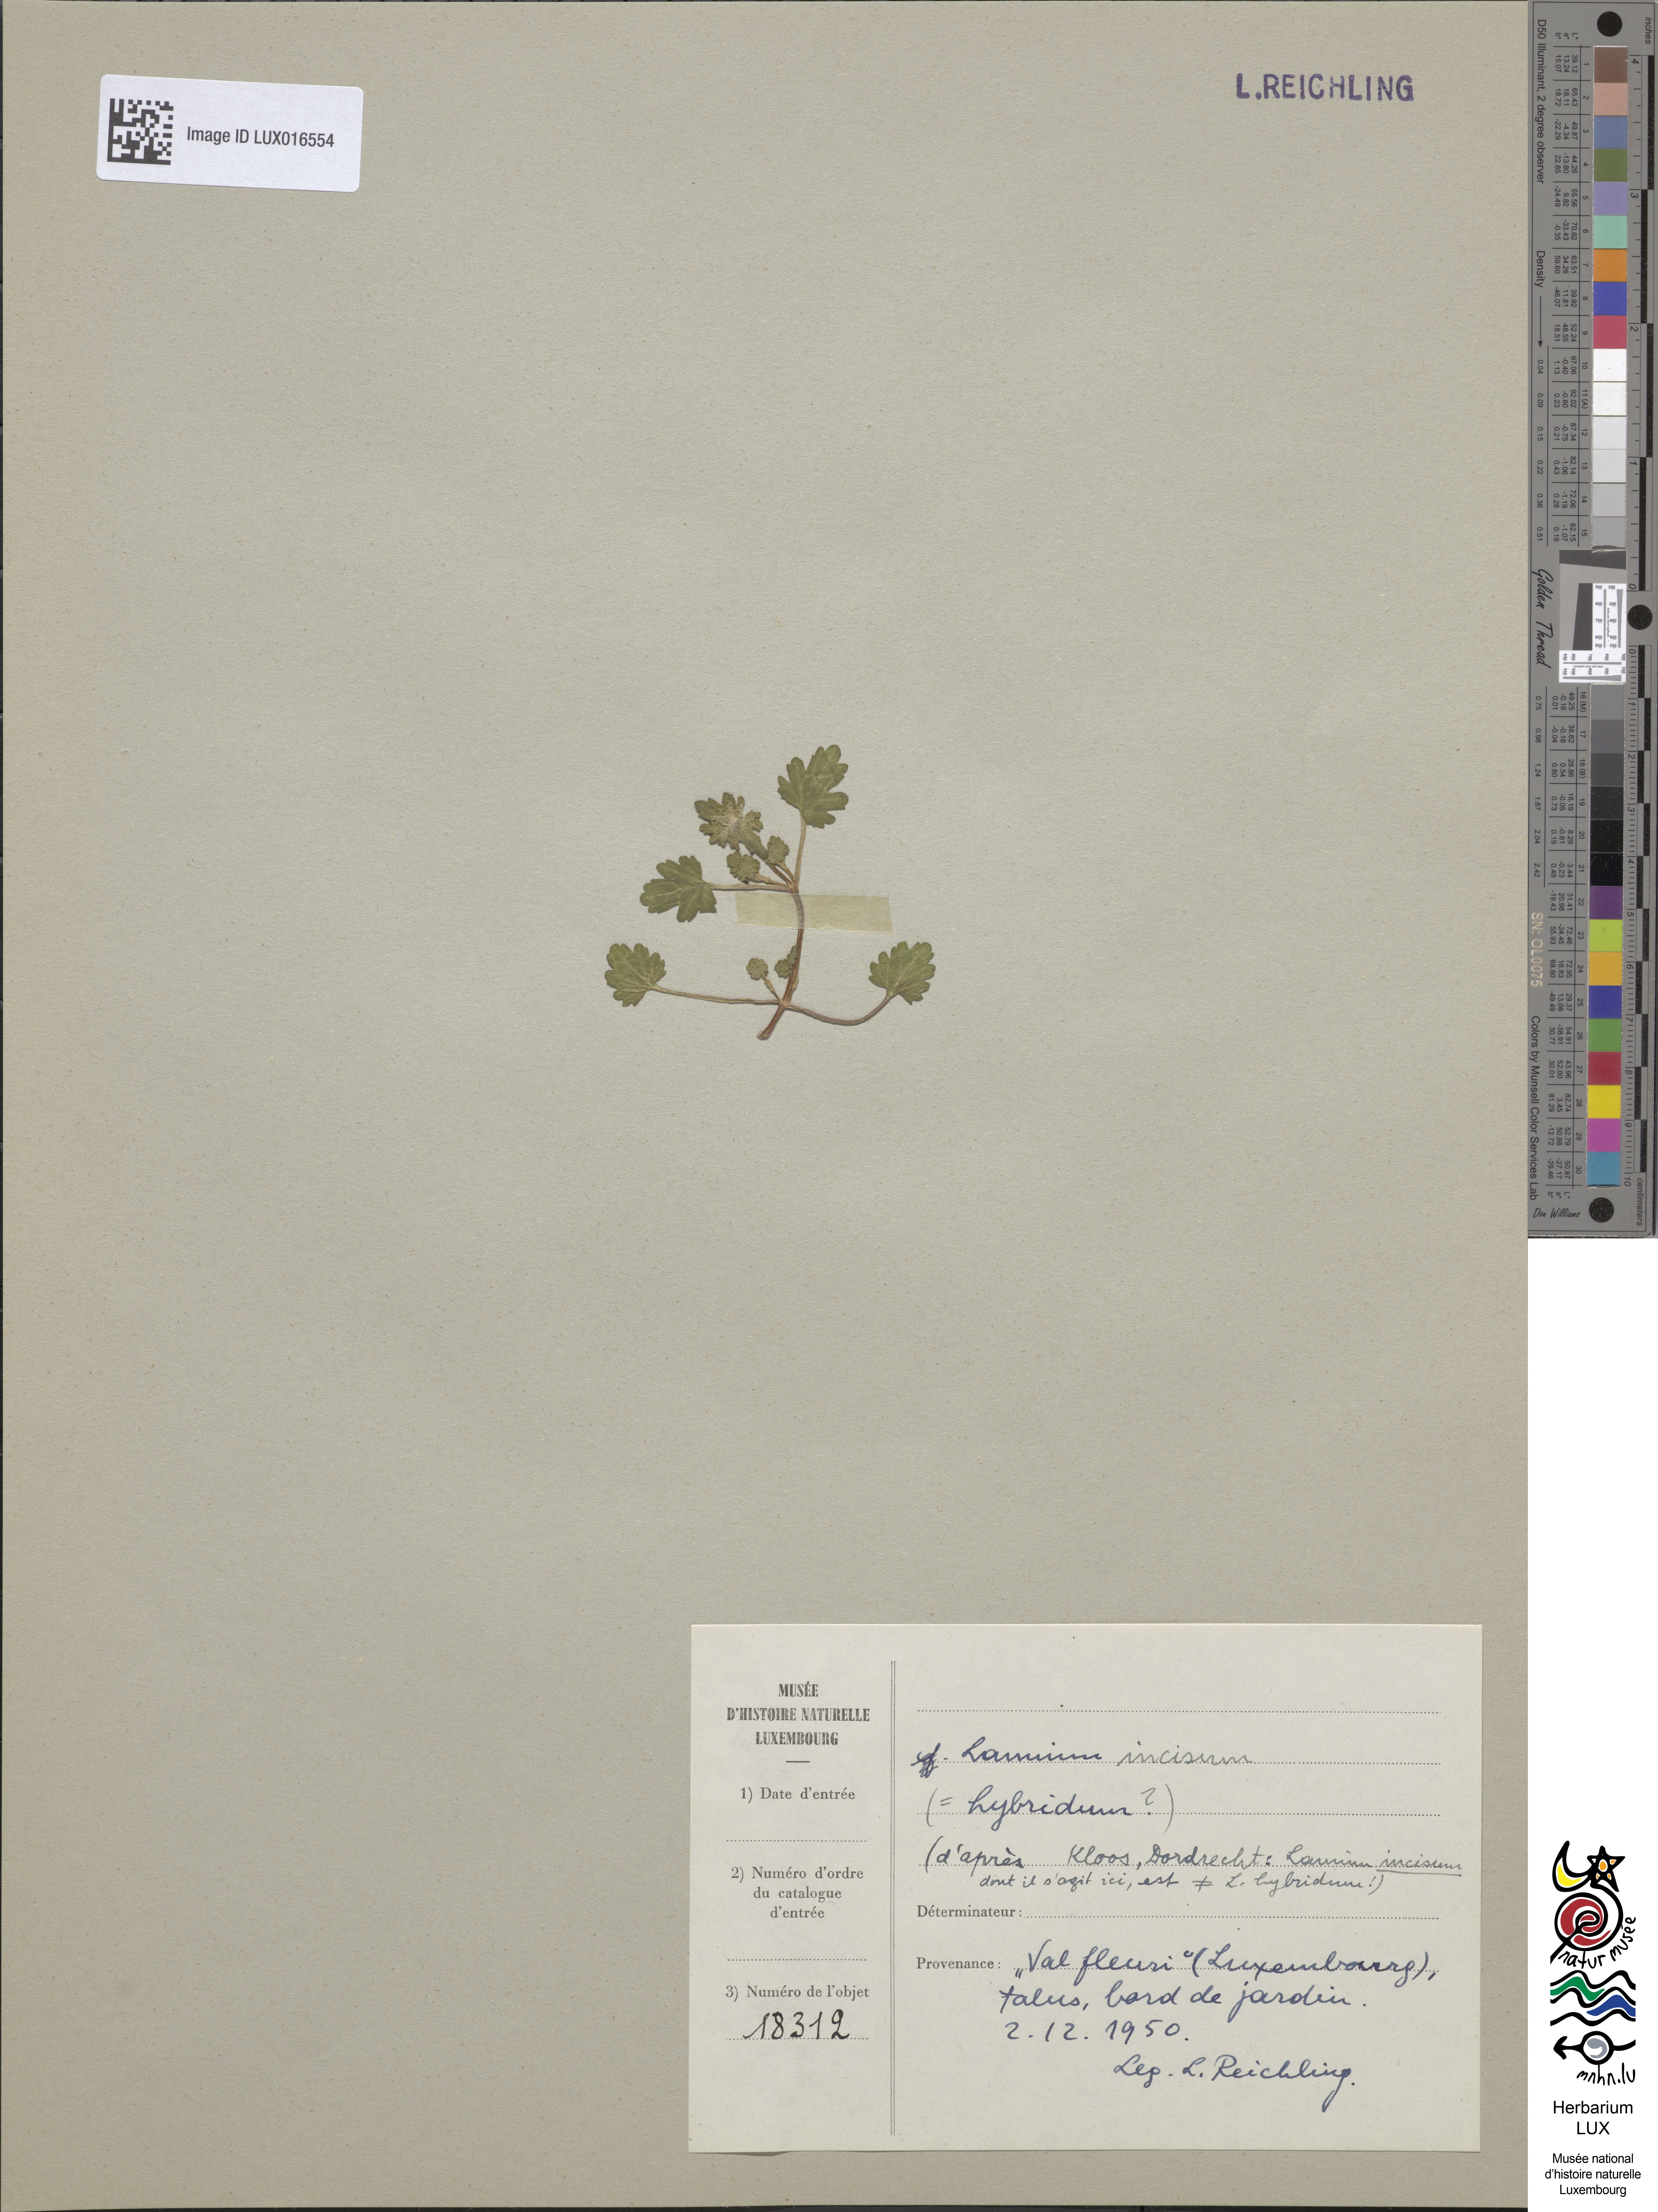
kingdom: Plantae
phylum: Tracheophyta
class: Magnoliopsida
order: Lamiales
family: Lamiaceae
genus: Lamium
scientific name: Lamium hybridum
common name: Cut-leaved dead-nettle
